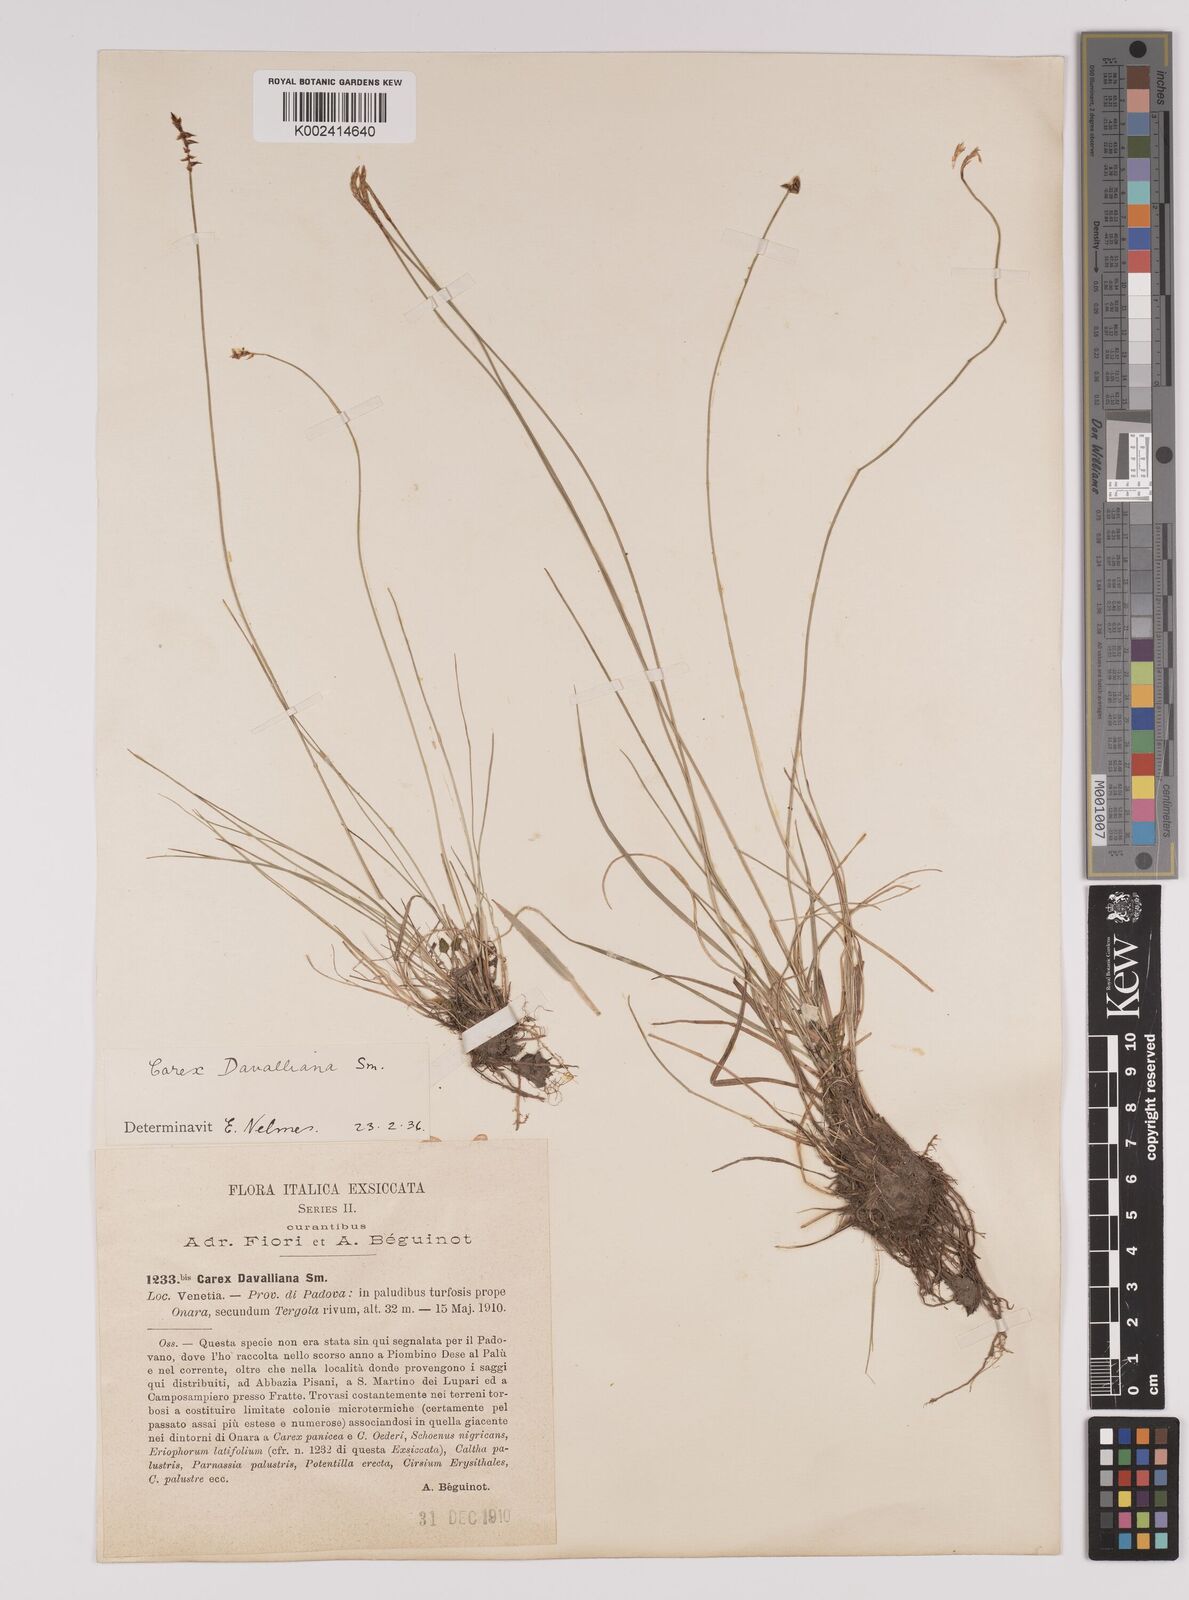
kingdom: Plantae
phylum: Tracheophyta
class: Liliopsida
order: Poales
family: Cyperaceae
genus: Carex
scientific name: Carex davalliana
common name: Davall's sedge
